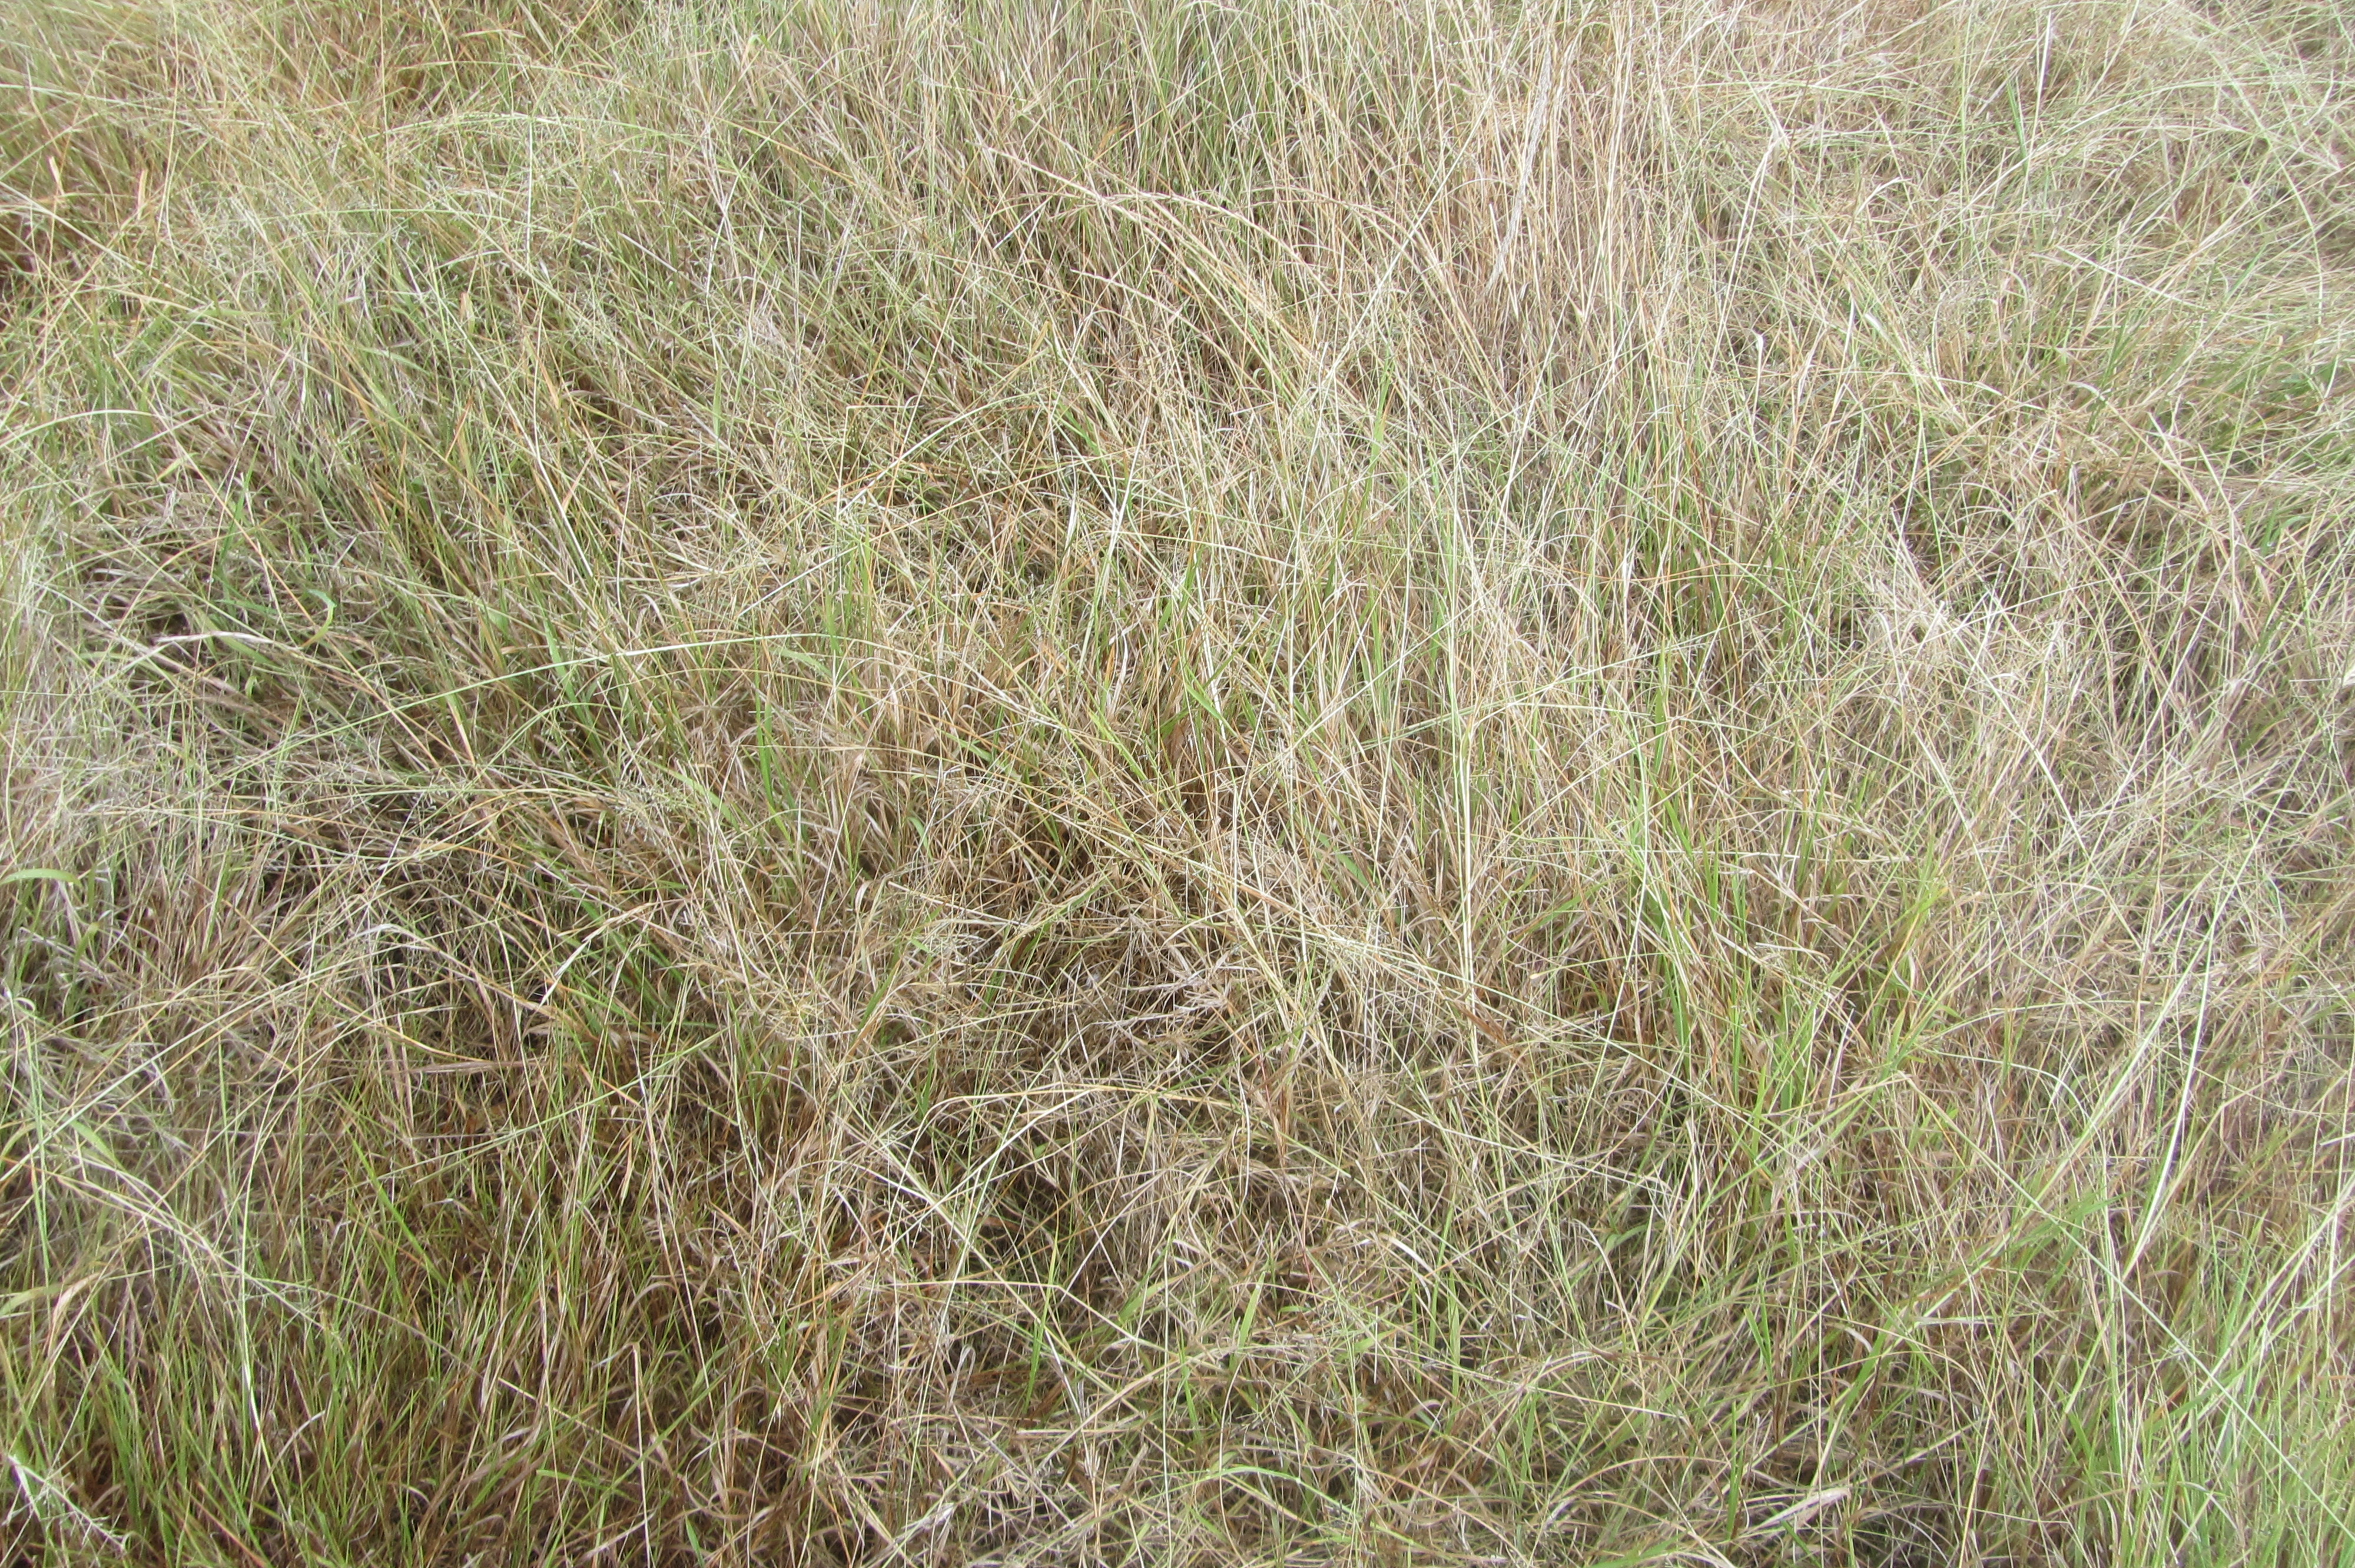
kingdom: Plantae
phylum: Tracheophyta
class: Liliopsida
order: Poales
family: Poaceae
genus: Eragrostis
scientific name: Eragrostis leptostachya
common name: Australian lovegrass
